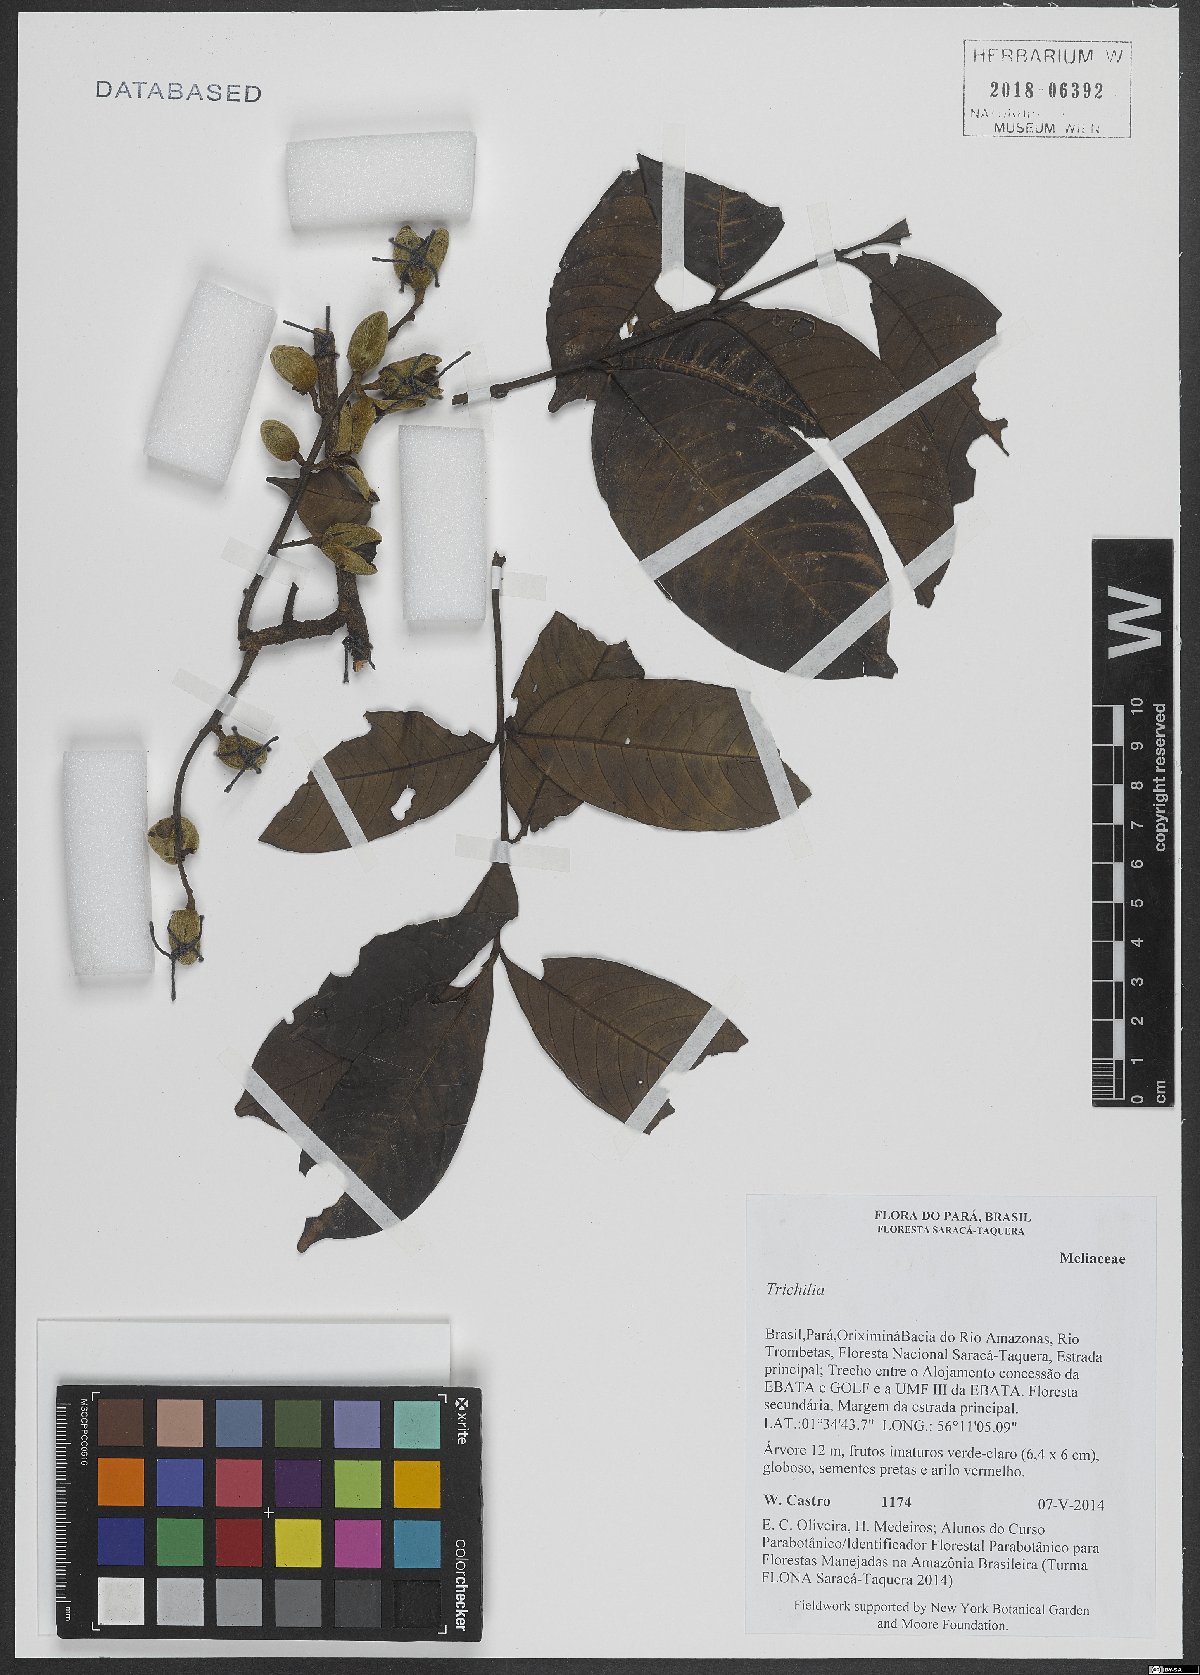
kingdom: Plantae
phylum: Tracheophyta
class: Magnoliopsida
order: Sapindales
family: Meliaceae
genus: Trichilia
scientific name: Trichilia
